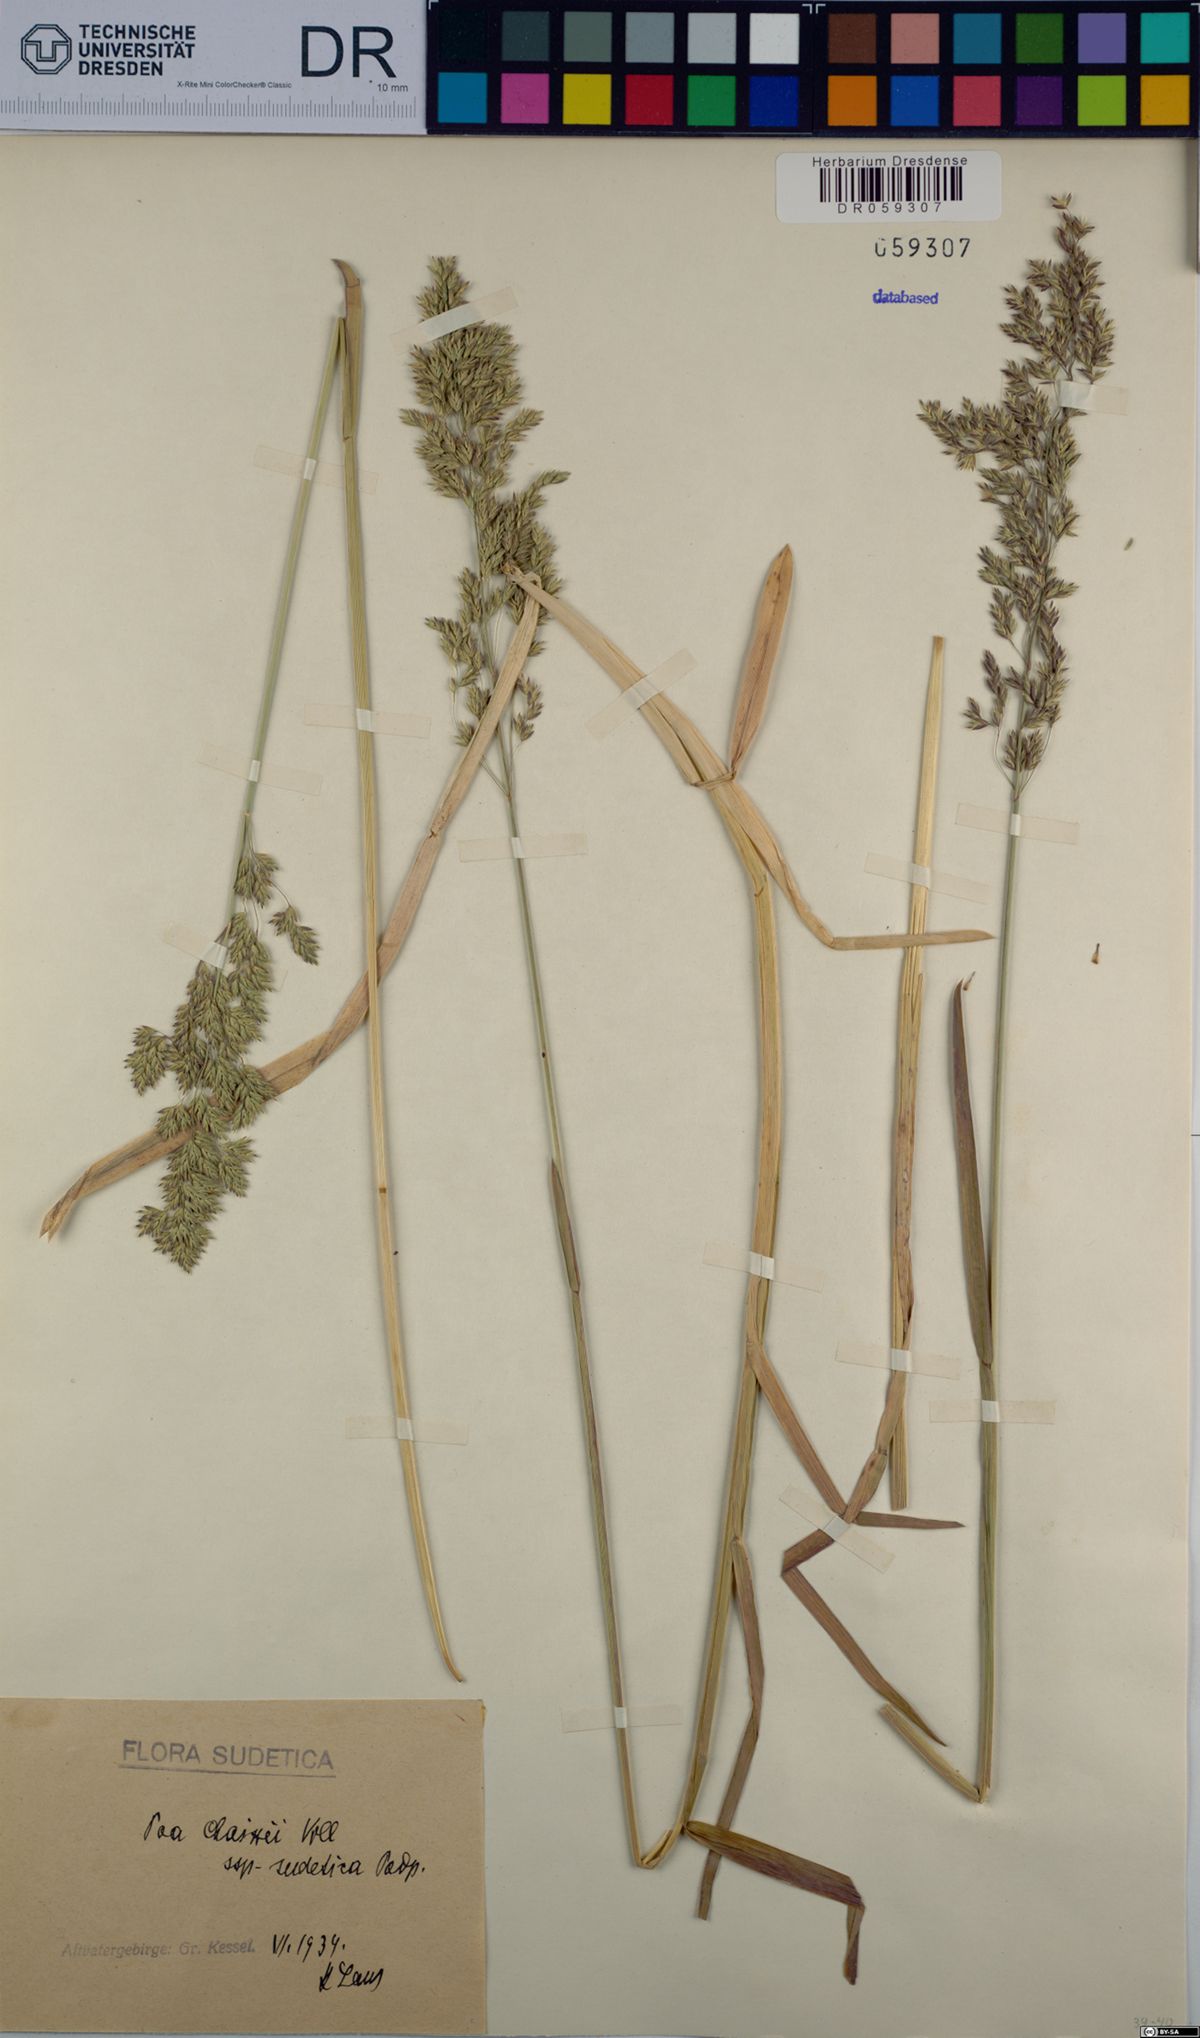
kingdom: Plantae
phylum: Tracheophyta
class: Liliopsida
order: Poales
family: Poaceae
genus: Poa
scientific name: Poa chaixii
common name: Broad-leaved meadow-grass
